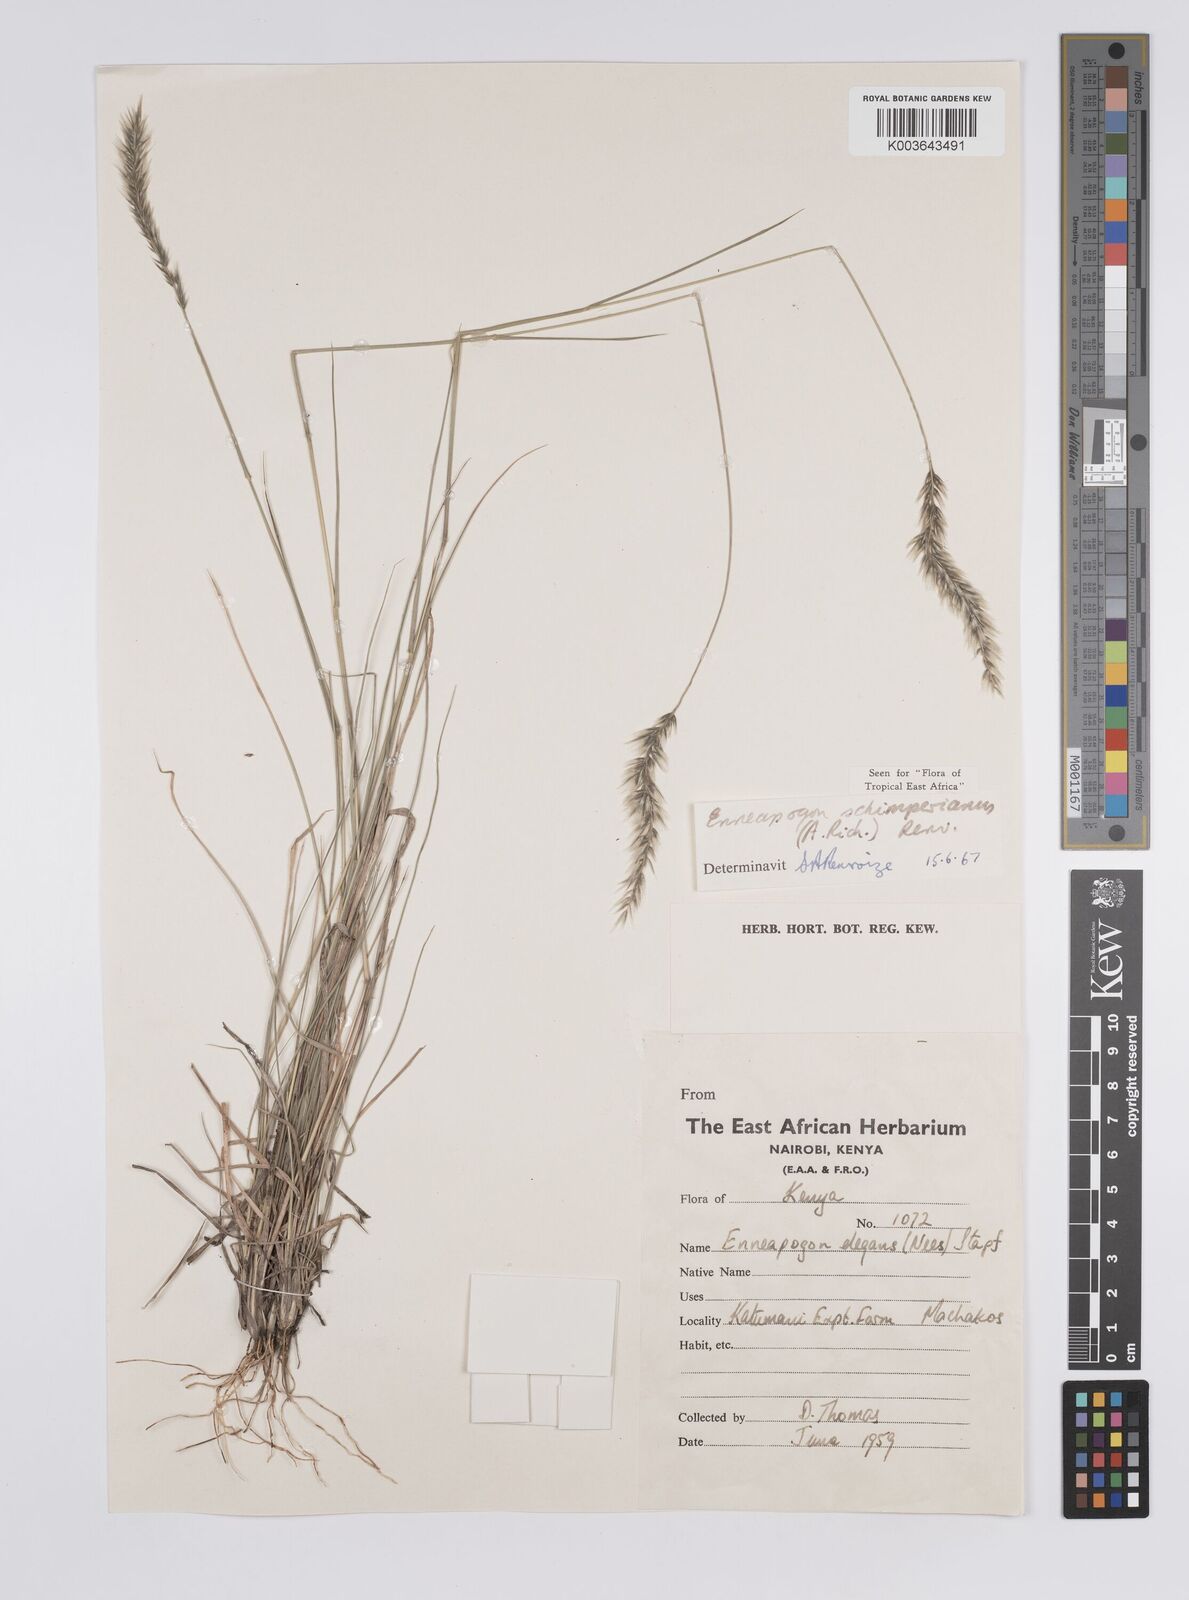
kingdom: Plantae
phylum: Tracheophyta
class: Liliopsida
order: Poales
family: Poaceae
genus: Enneapogon
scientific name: Enneapogon persicus
